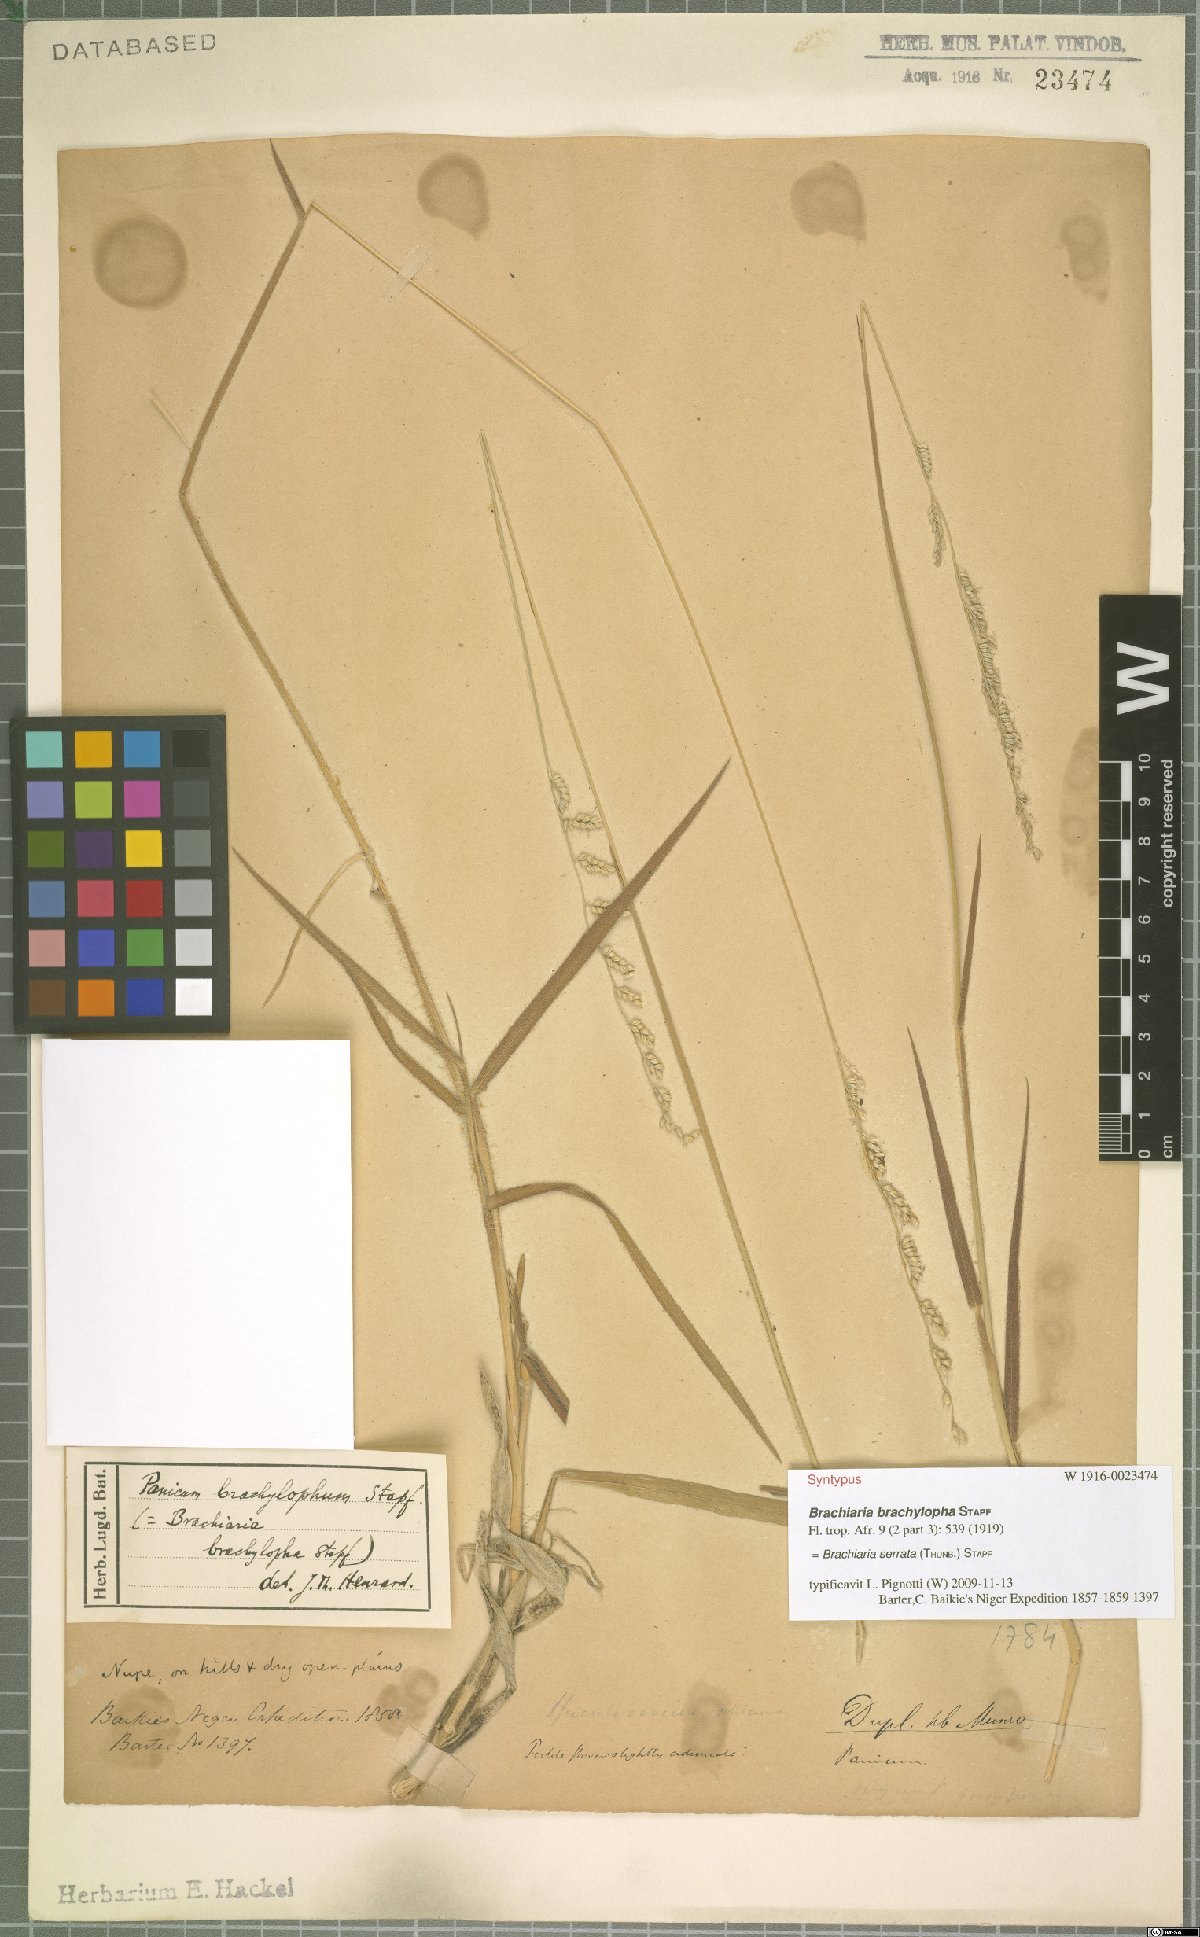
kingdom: Plantae
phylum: Tracheophyta
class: Liliopsida
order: Poales
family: Poaceae
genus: Urochloa
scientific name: Urochloa serrata
